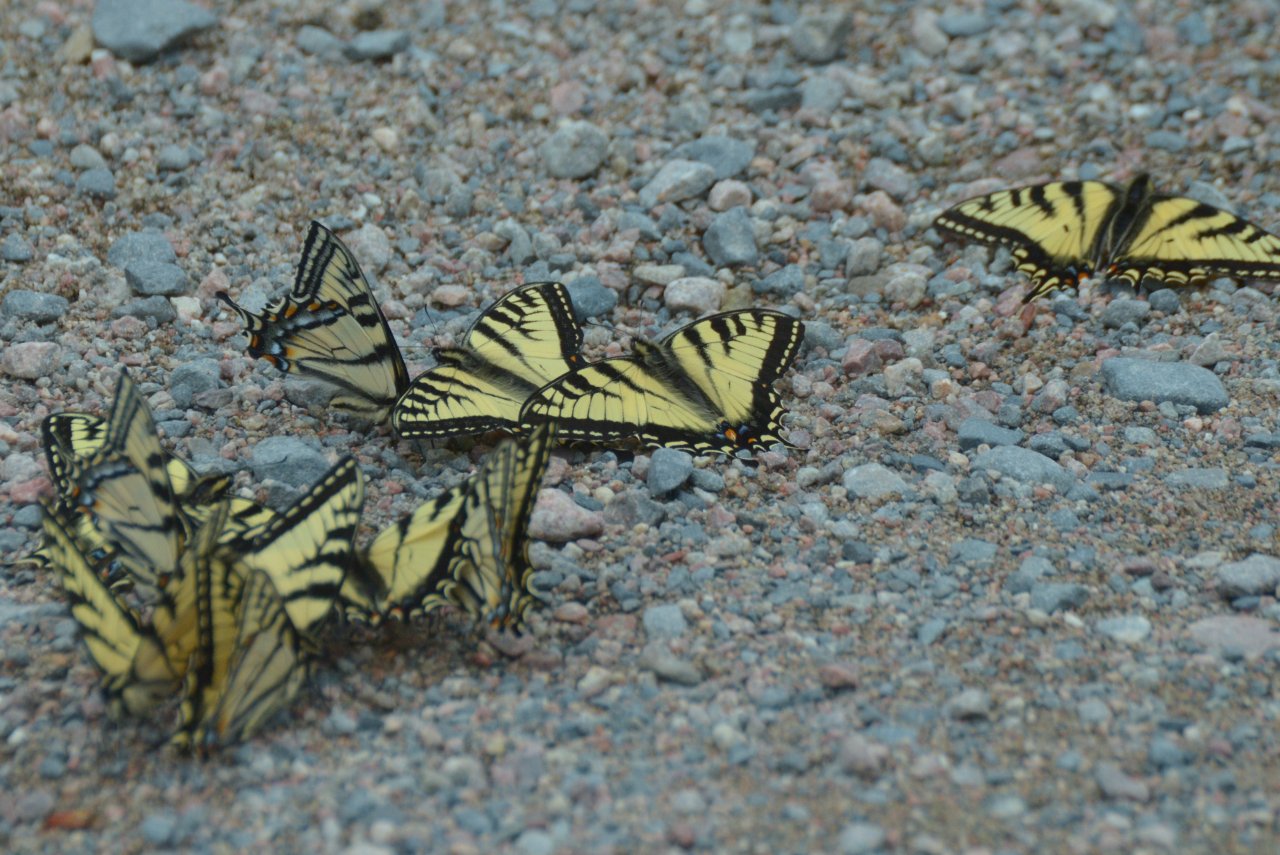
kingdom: Animalia
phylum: Arthropoda
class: Insecta
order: Lepidoptera
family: Papilionidae
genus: Pterourus
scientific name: Pterourus canadensis
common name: Canadian Tiger Swallowtail
